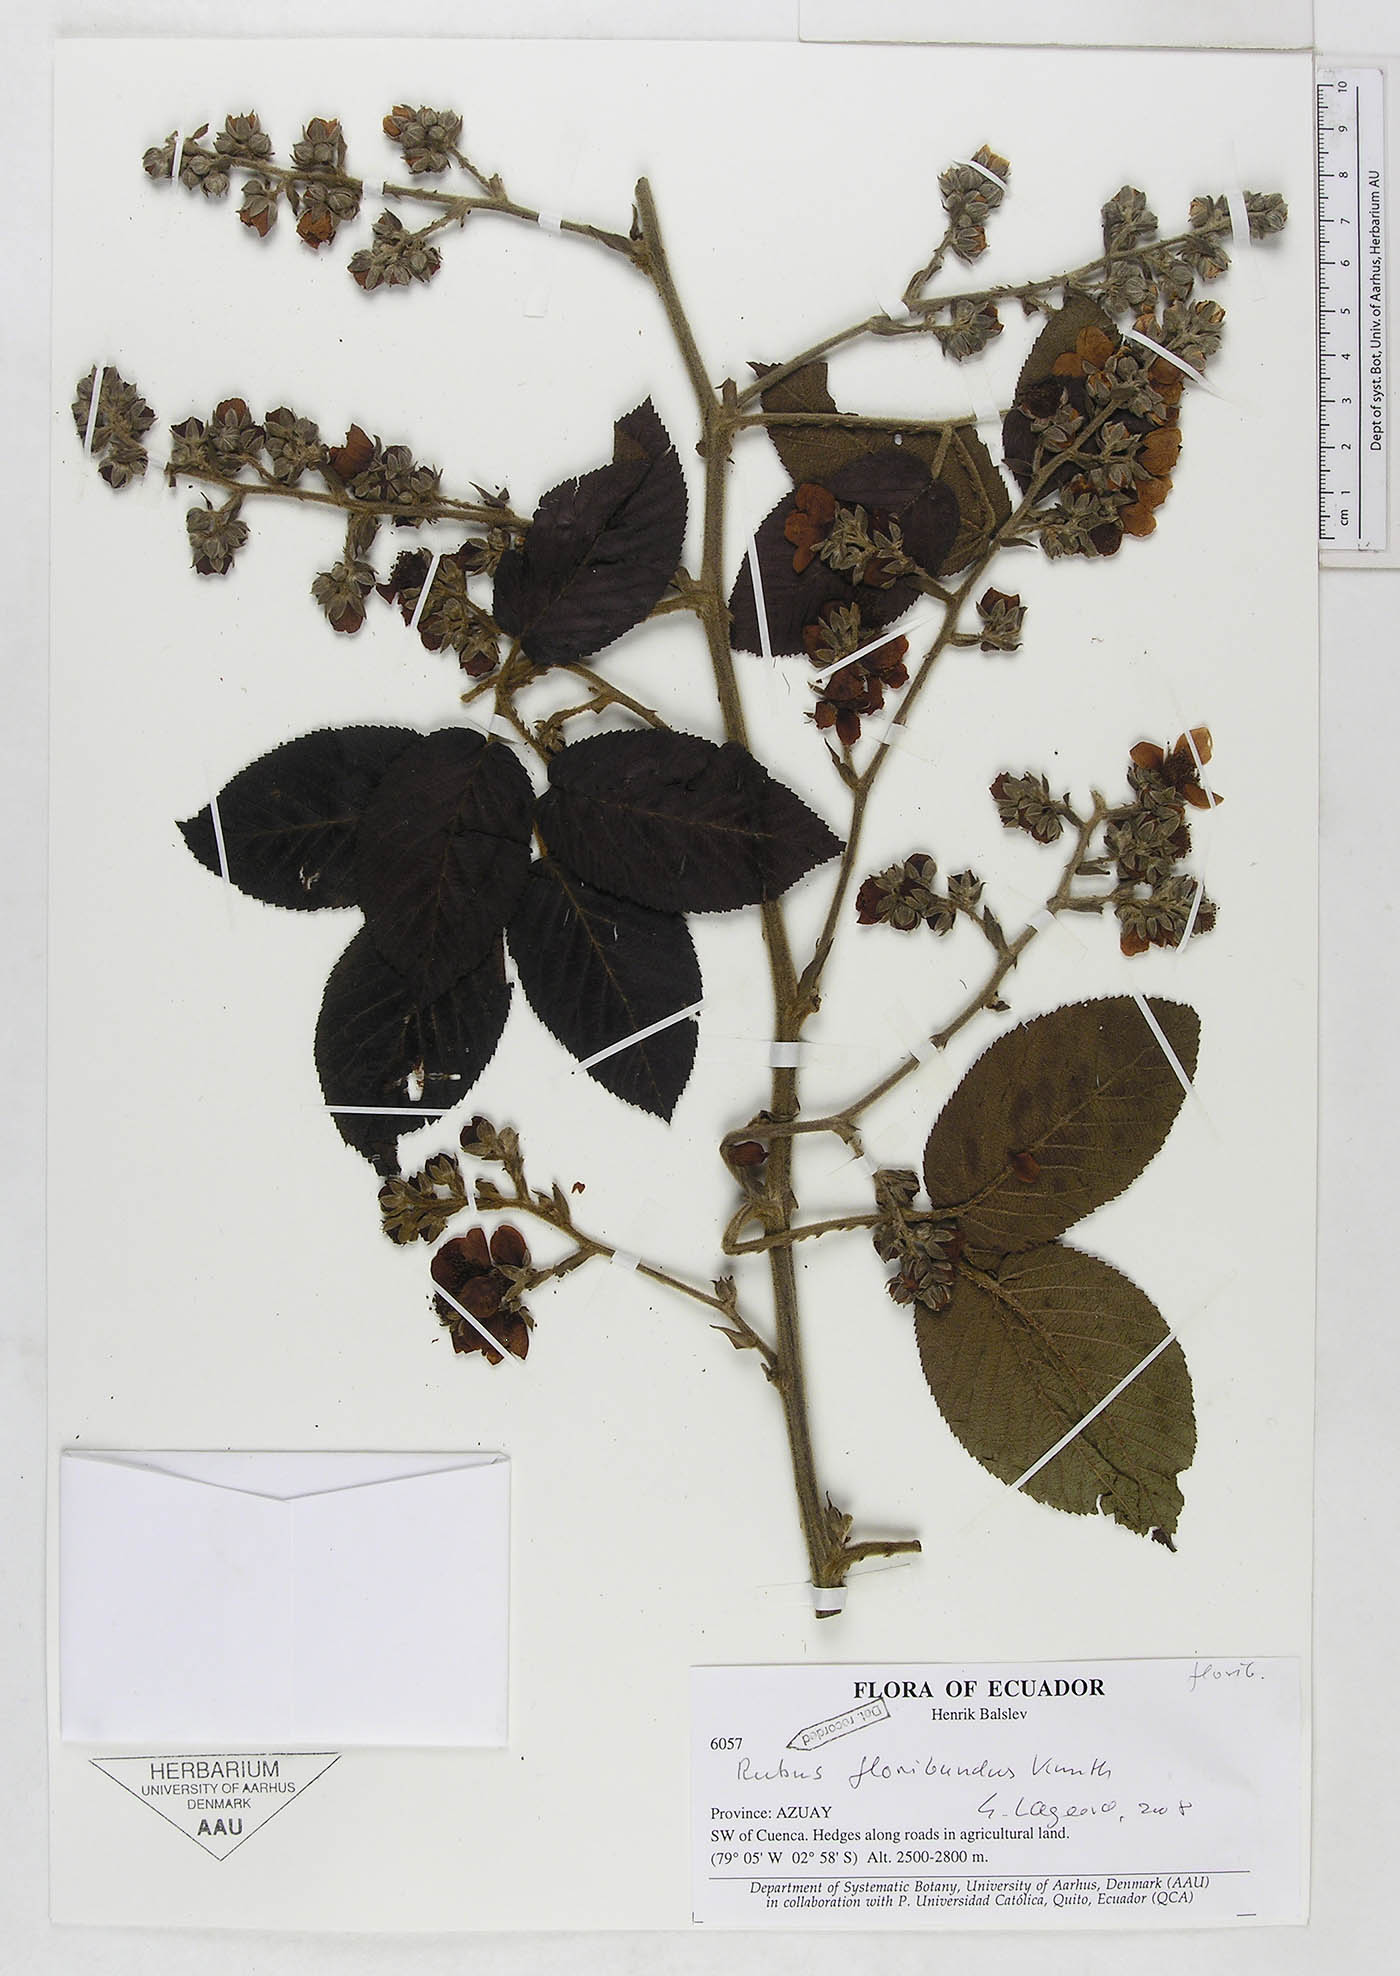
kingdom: Plantae
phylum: Tracheophyta
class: Magnoliopsida
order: Rosales
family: Rosaceae
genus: Rubus
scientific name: Rubus floribundus
